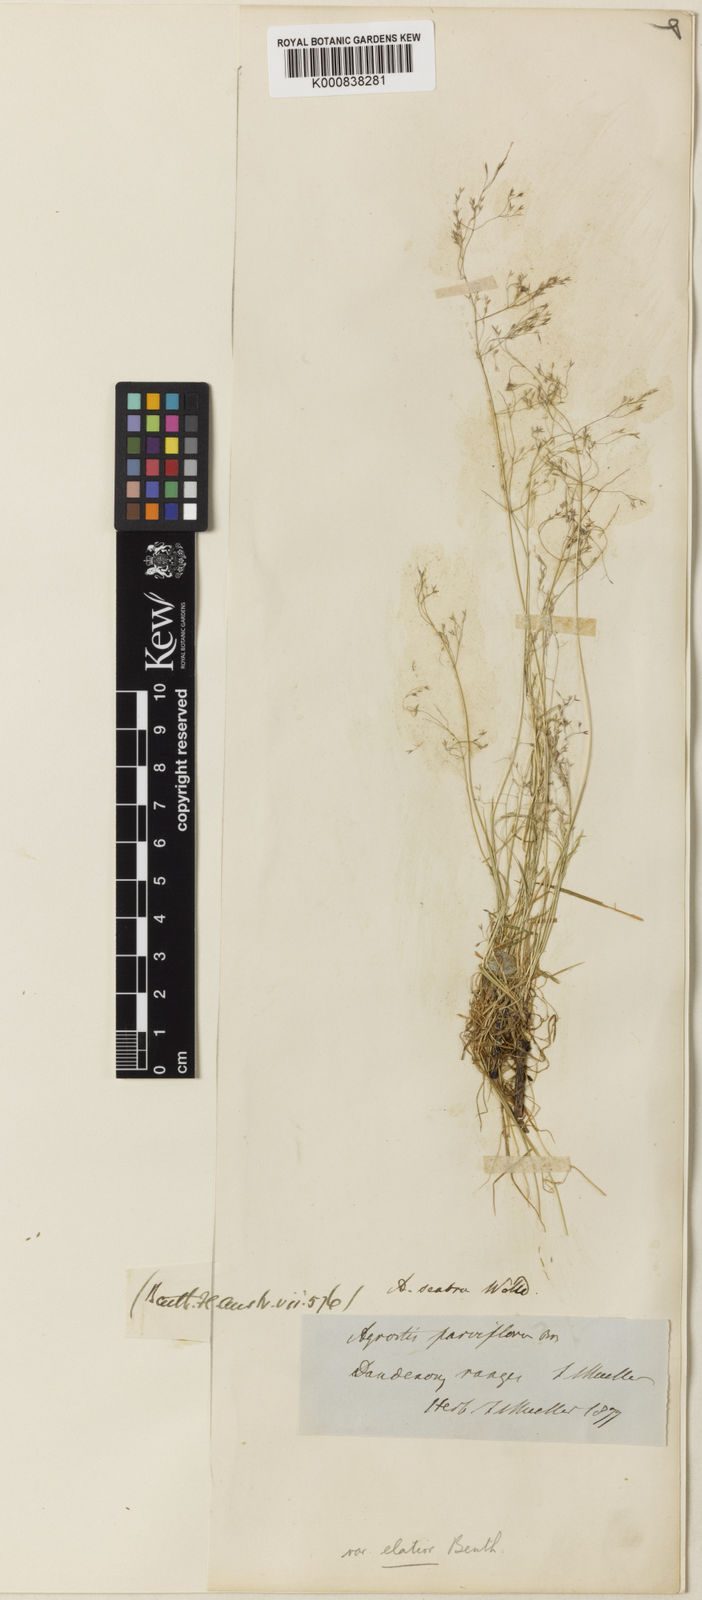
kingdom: Plantae
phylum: Tracheophyta
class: Liliopsida
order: Poales
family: Poaceae
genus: Agrostis
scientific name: Agrostis parviflora
